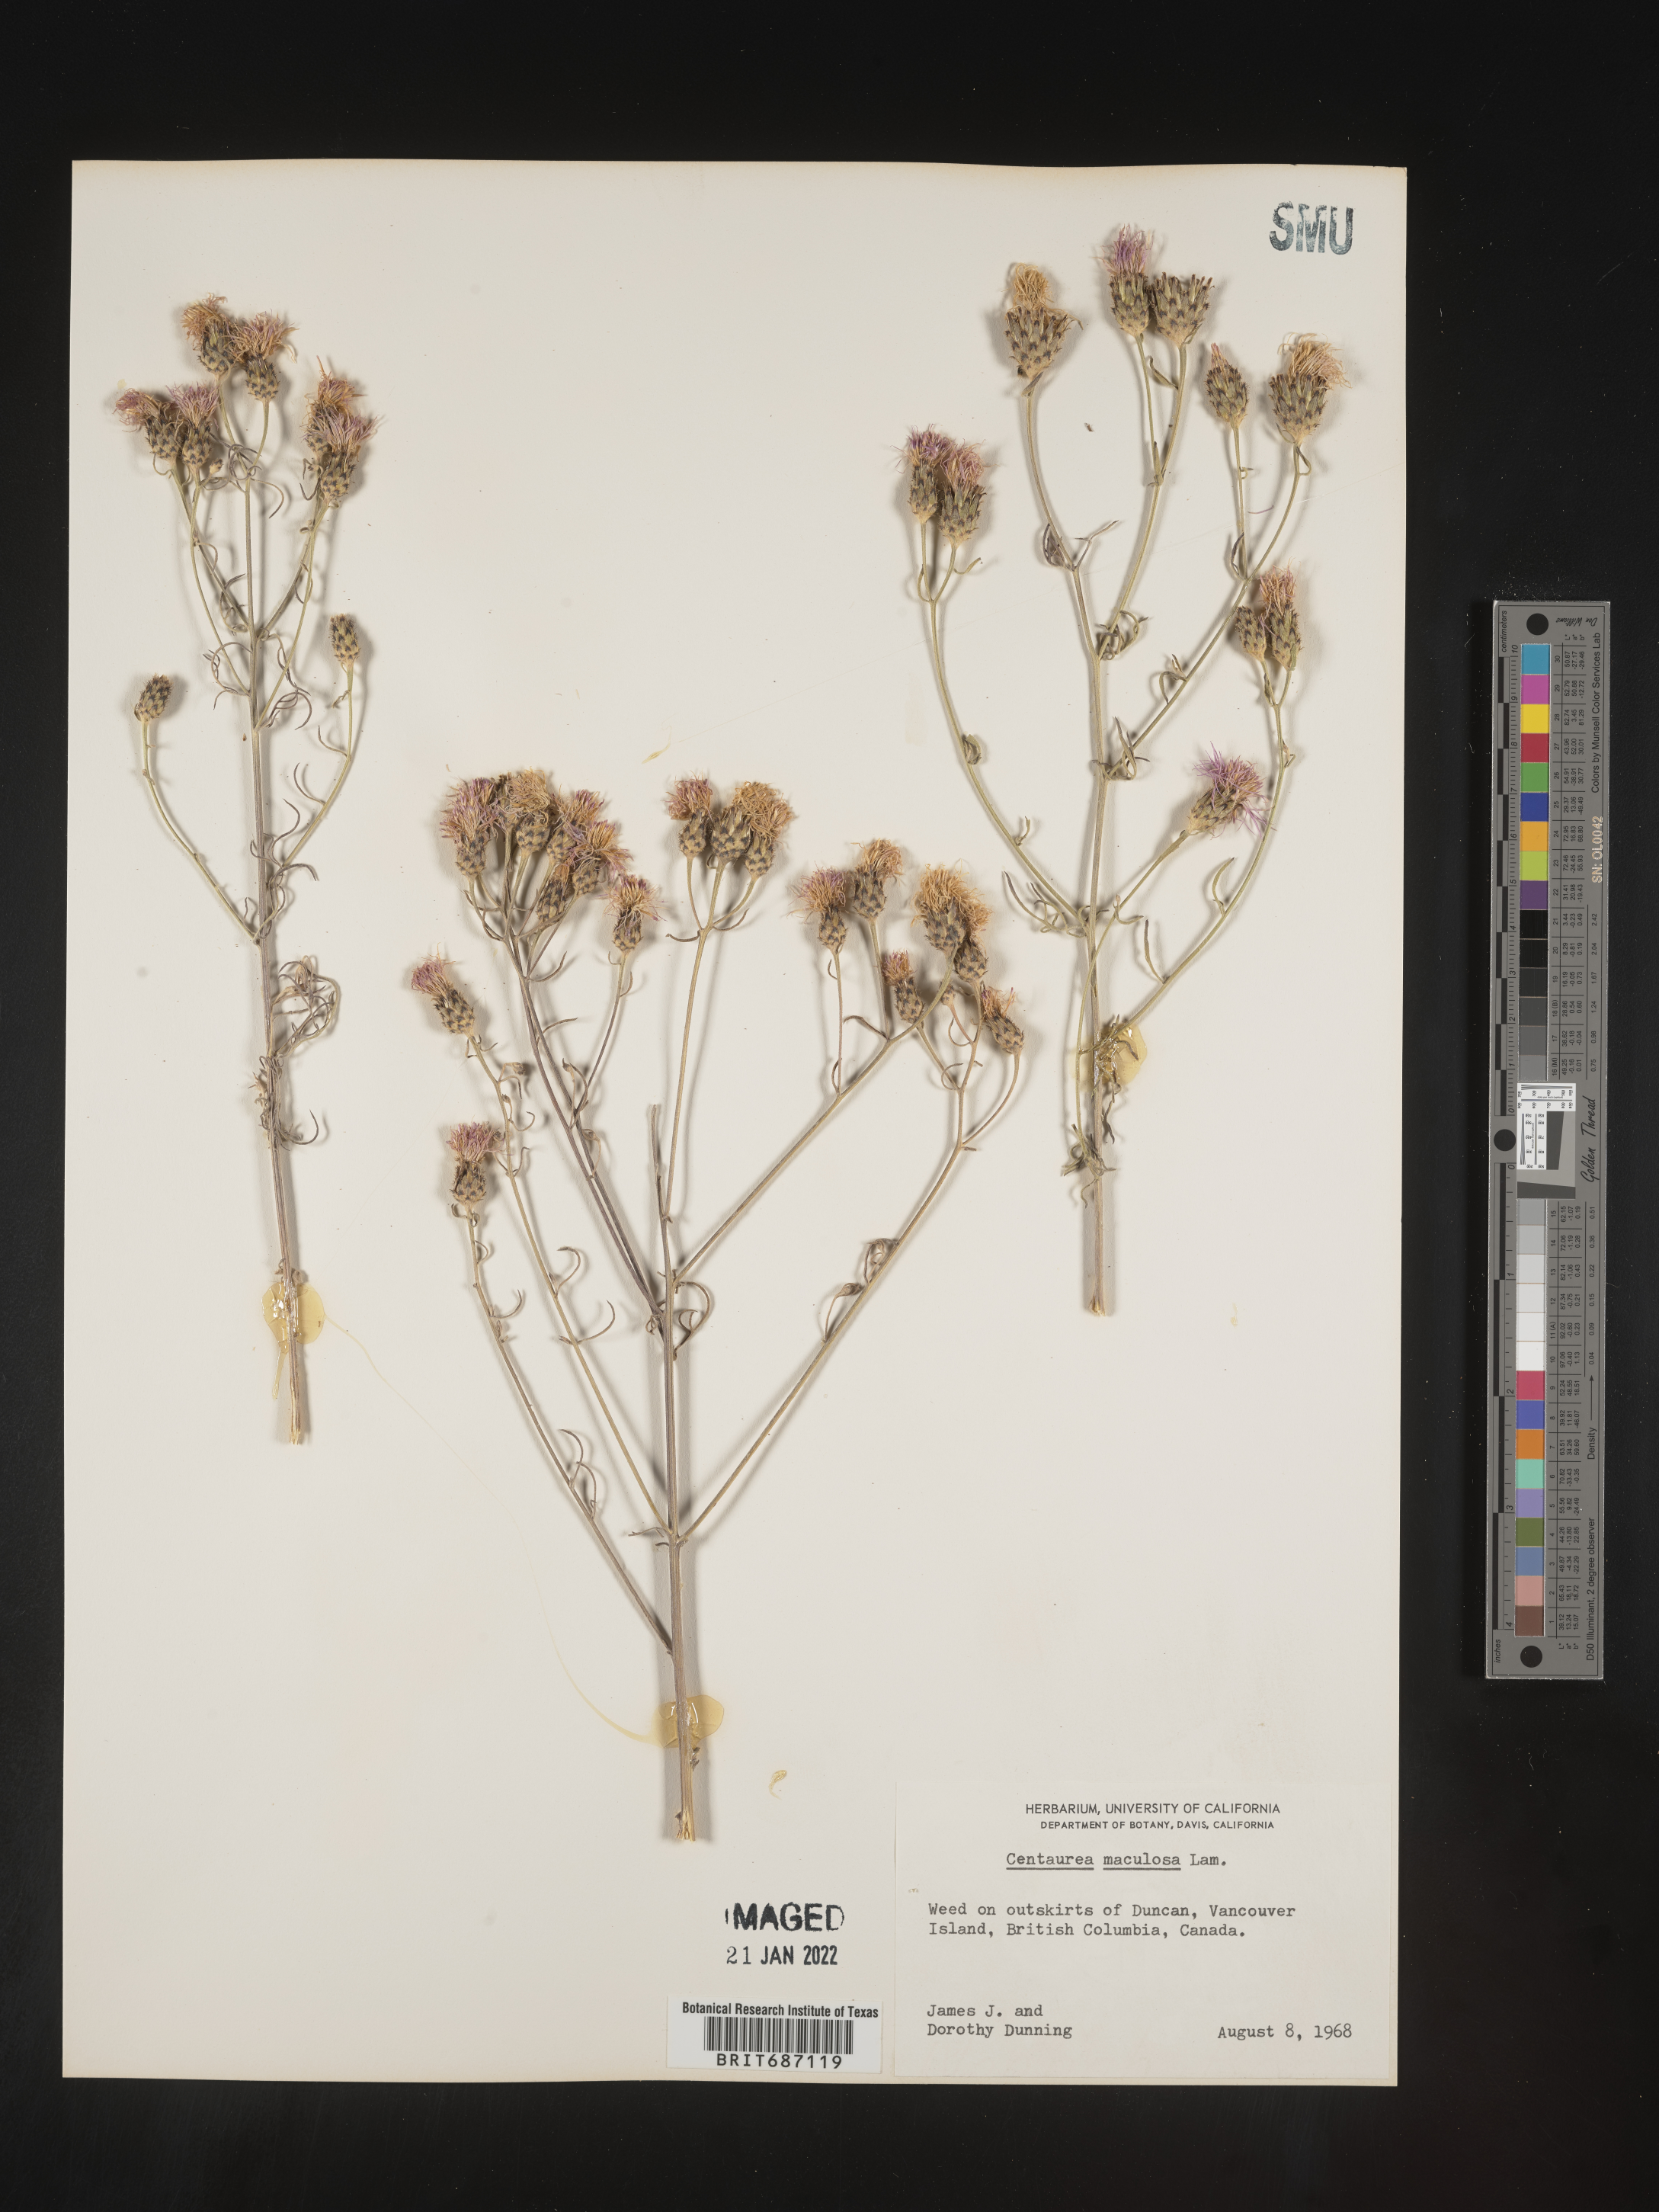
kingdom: Plantae
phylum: Tracheophyta
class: Magnoliopsida
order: Asterales
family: Asteraceae
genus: Centaurea
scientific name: Centaurea stoebe
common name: Spotted knapweed
